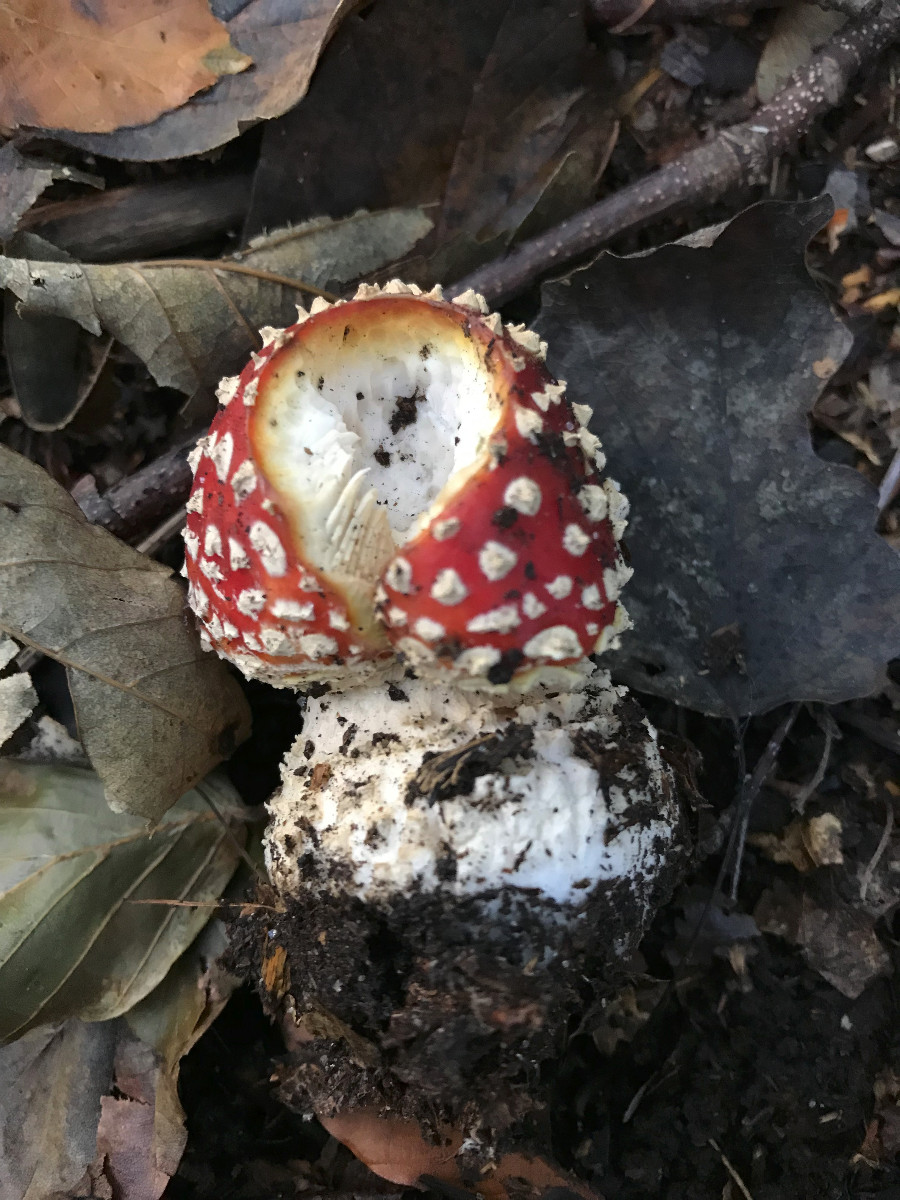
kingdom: Fungi
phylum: Basidiomycota
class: Agaricomycetes
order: Agaricales
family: Amanitaceae
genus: Amanita
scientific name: Amanita muscaria
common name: rød fluesvamp
